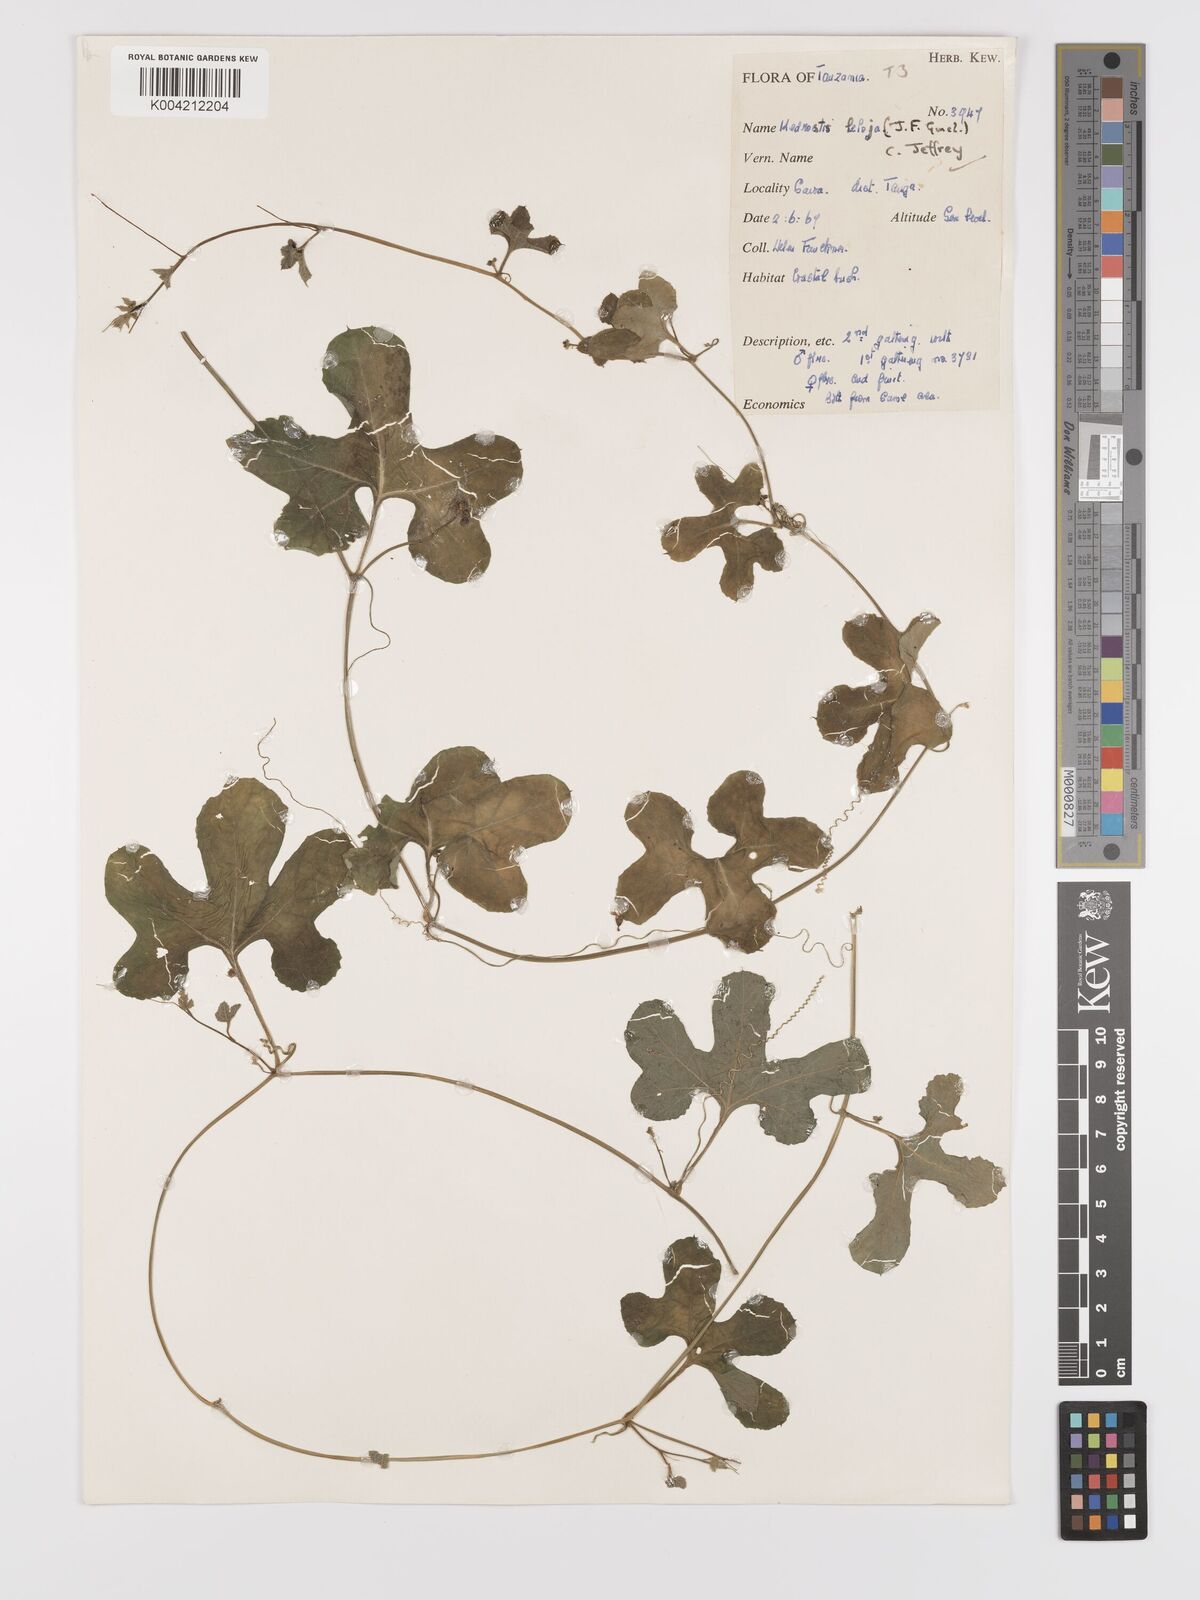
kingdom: Plantae
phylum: Tracheophyta
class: Magnoliopsida
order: Cucurbitales
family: Cucurbitaceae
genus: Kedrostis
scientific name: Kedrostis abdallae
